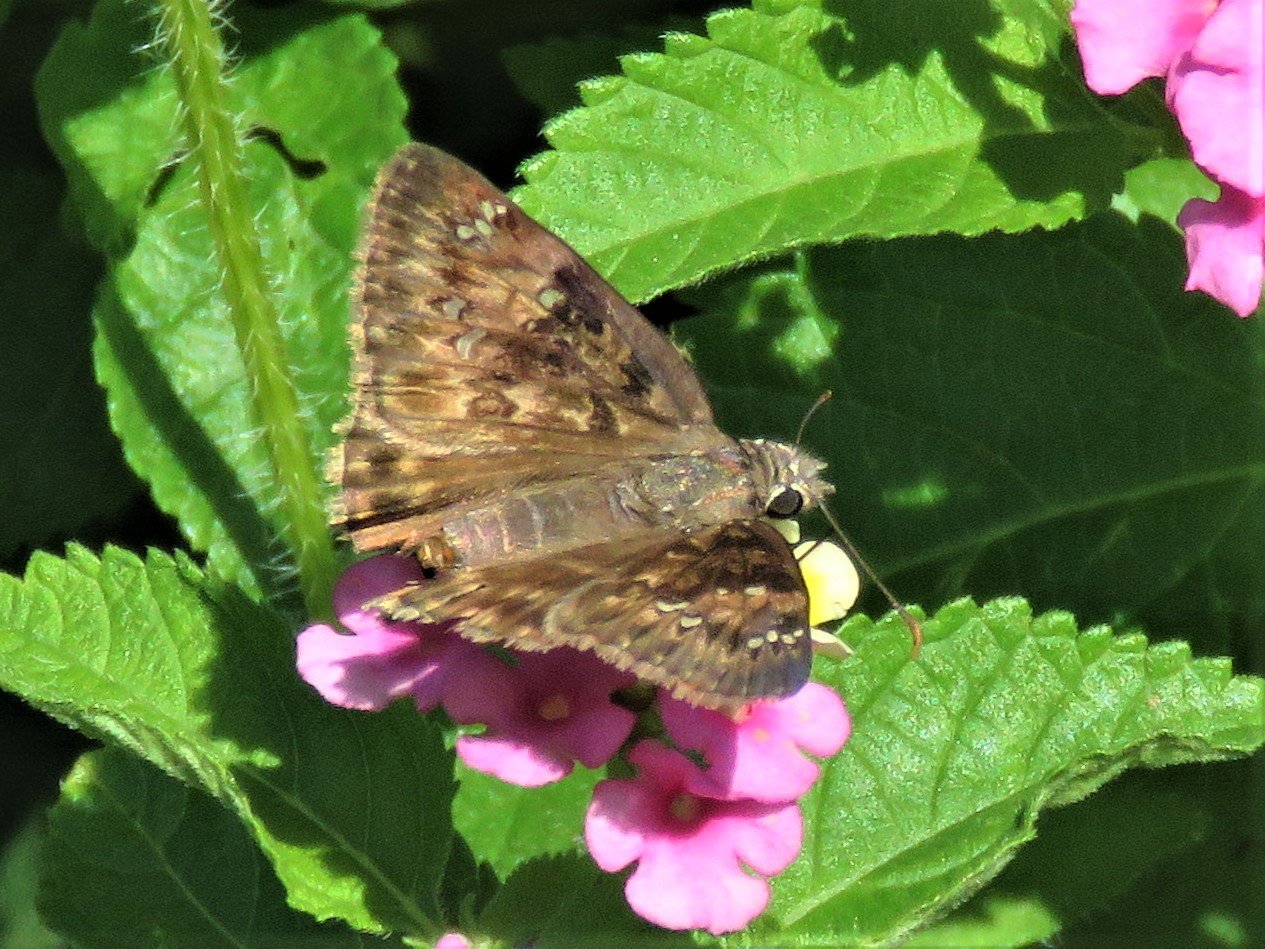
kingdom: Animalia
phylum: Arthropoda
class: Insecta
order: Lepidoptera
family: Hesperiidae
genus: Gesta
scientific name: Gesta
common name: Horace's Duskywing
